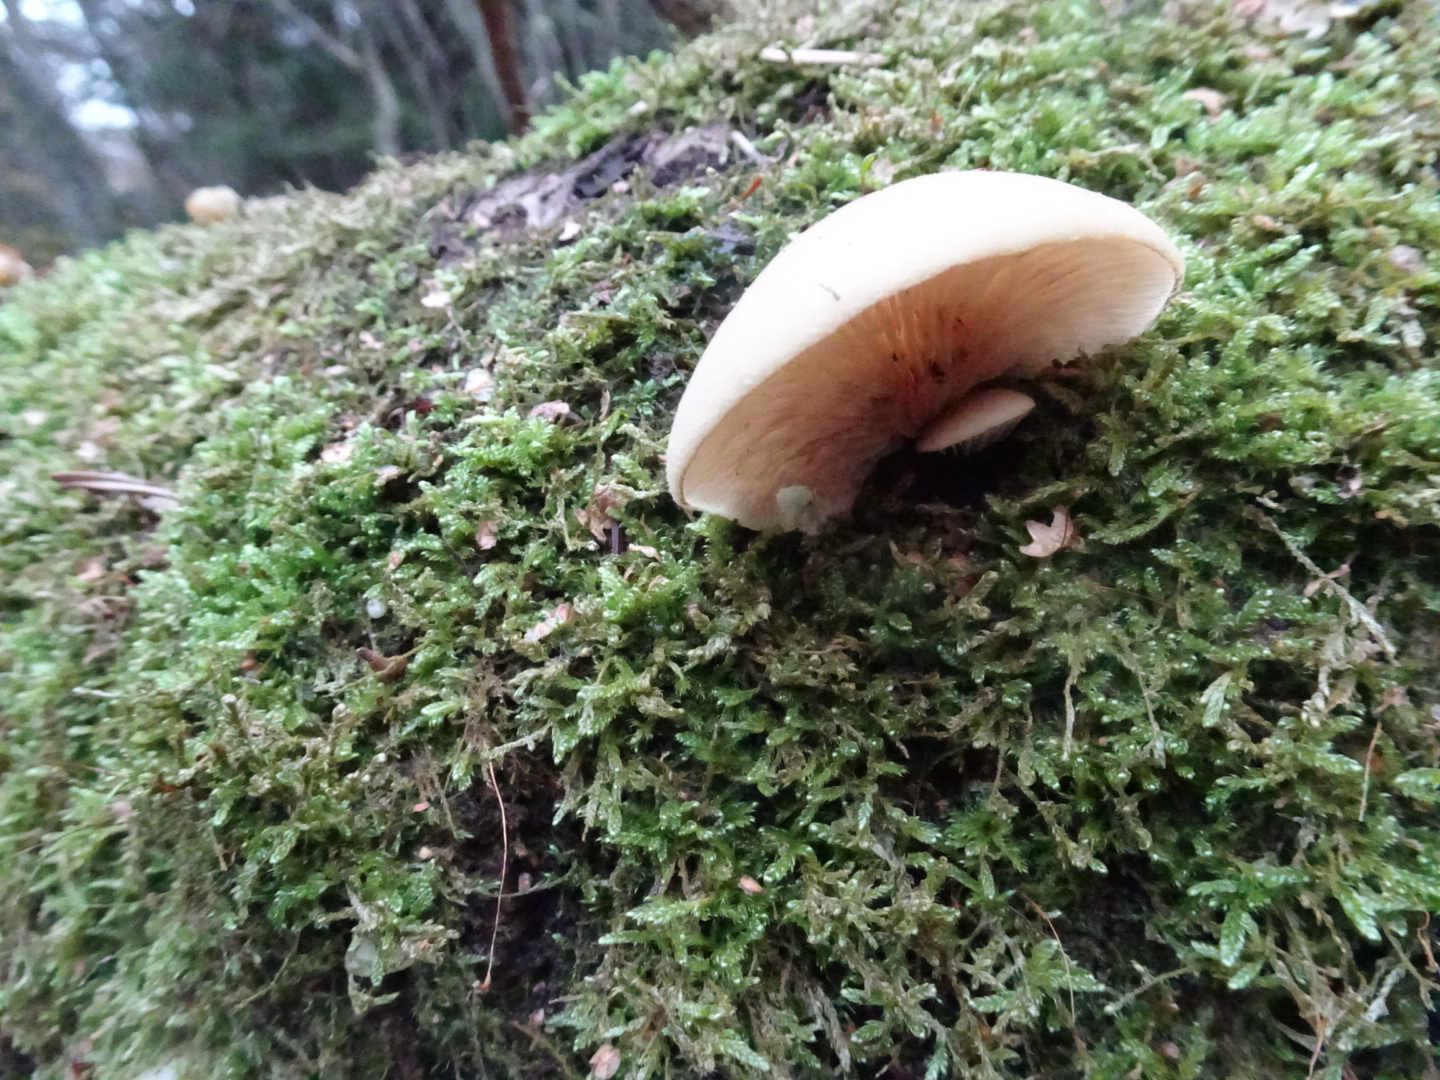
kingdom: Fungi
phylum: Basidiomycota
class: Agaricomycetes
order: Agaricales
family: Crepidotaceae
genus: Crepidotus
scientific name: Crepidotus mollis
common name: blød muslingesvamp
